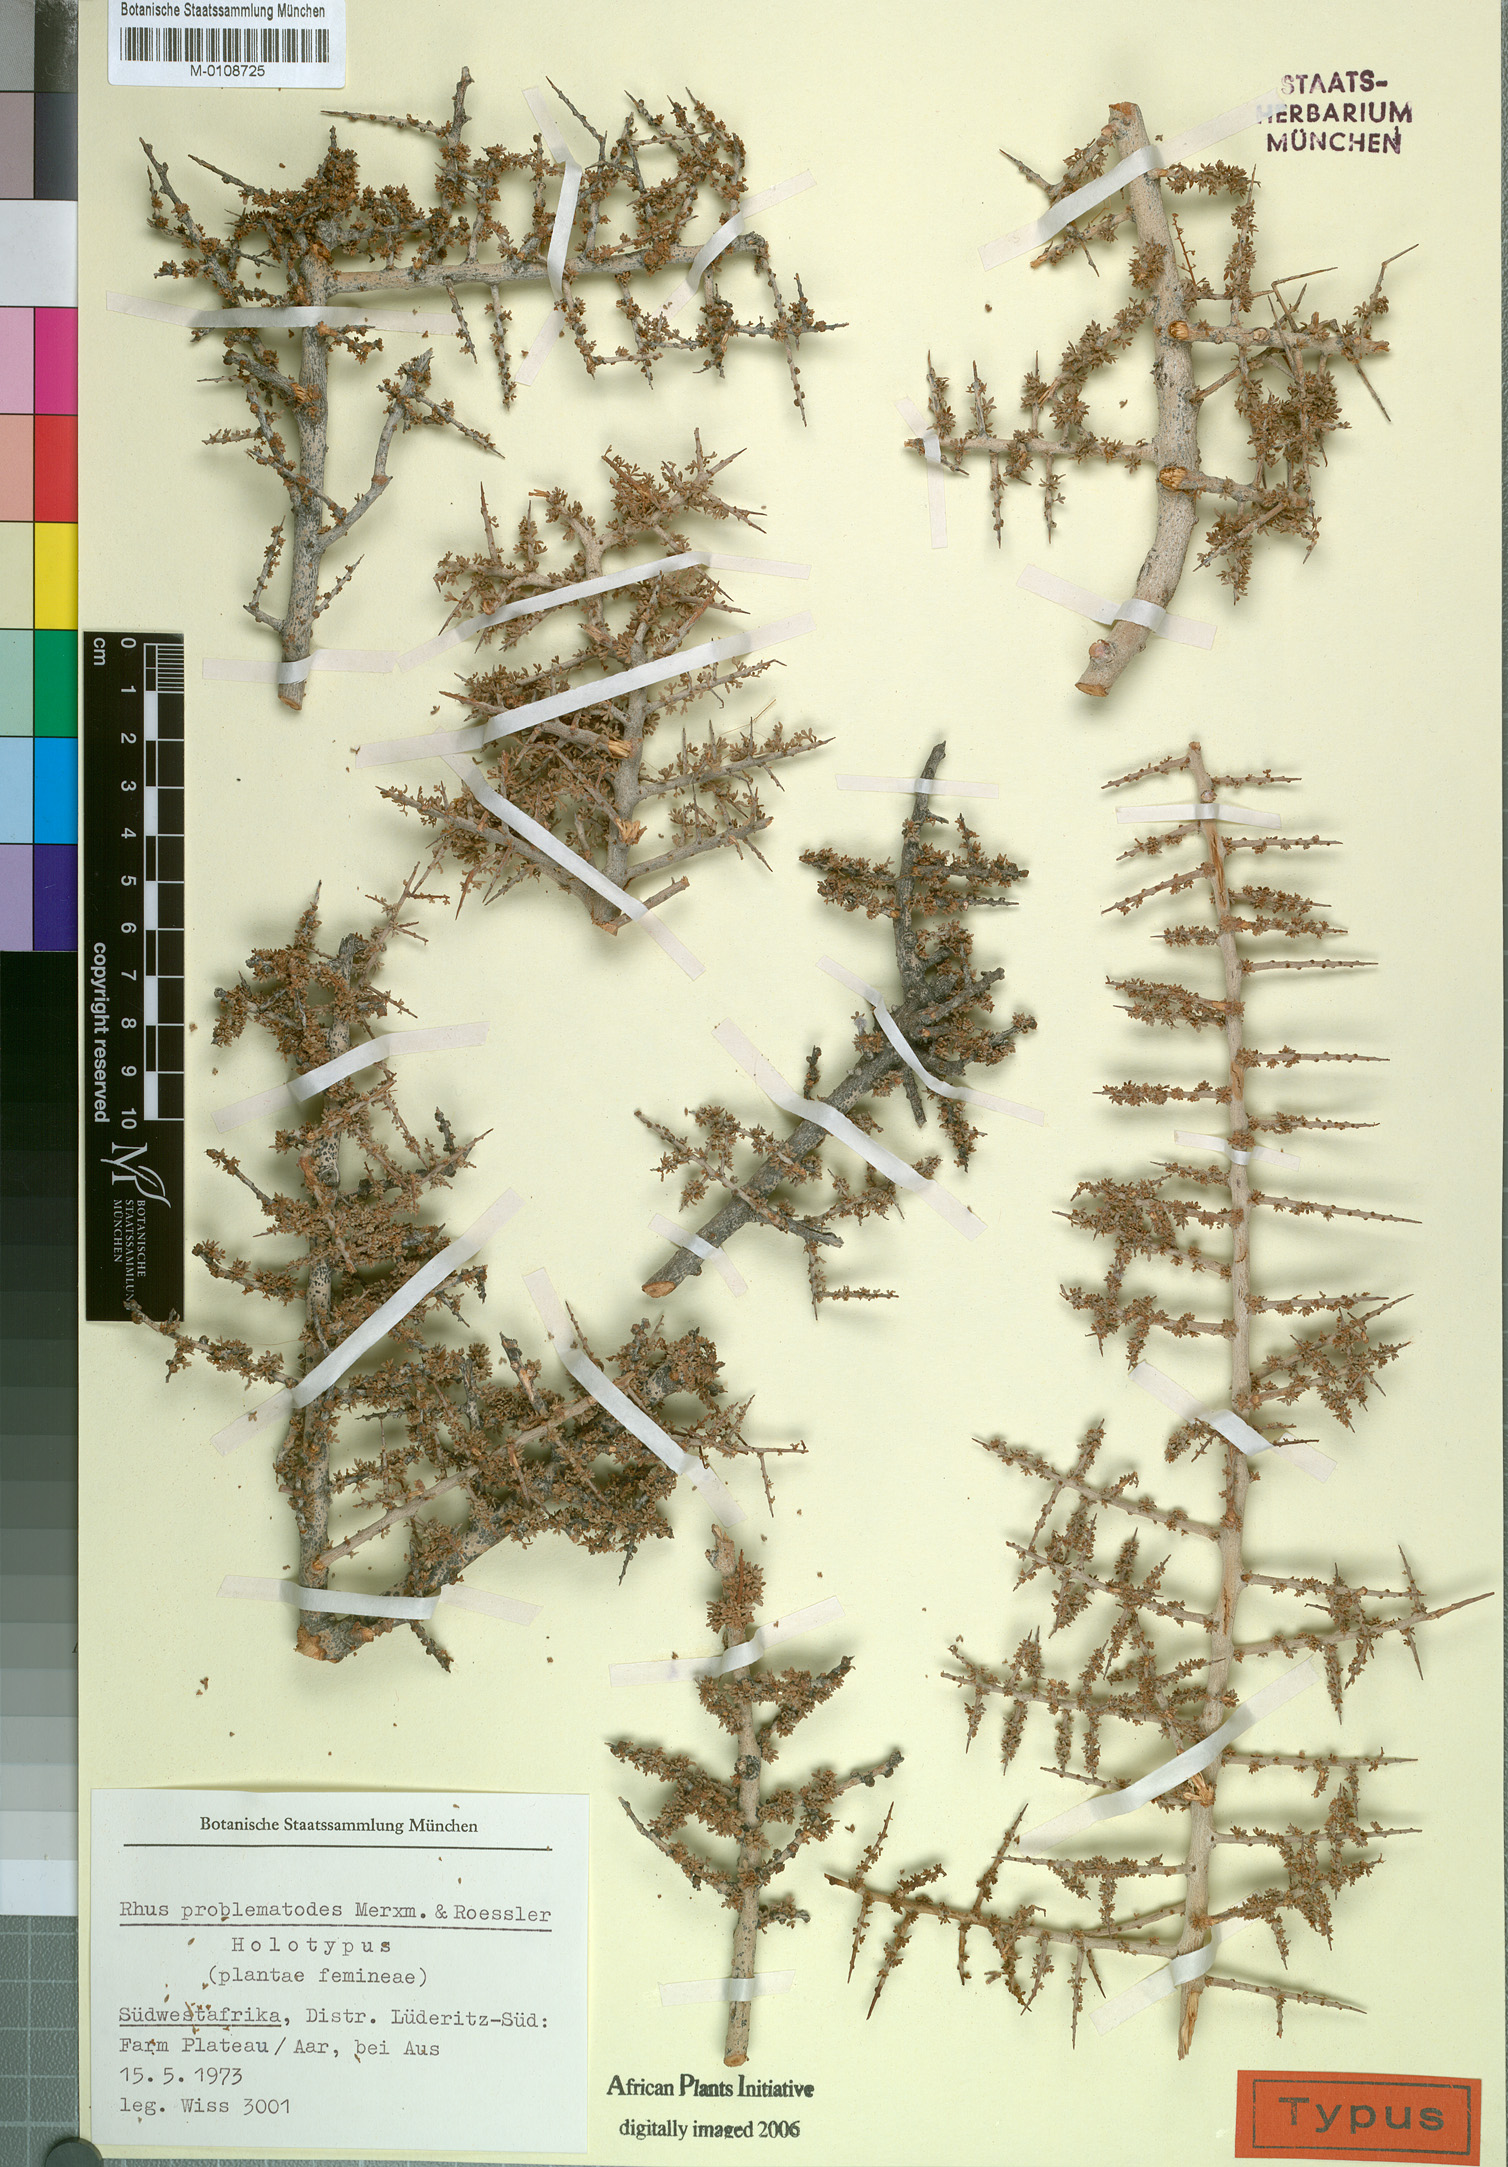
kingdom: Plantae
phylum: Tracheophyta
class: Magnoliopsida
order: Sapindales
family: Anacardiaceae
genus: Searsia
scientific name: Searsia problematodes
